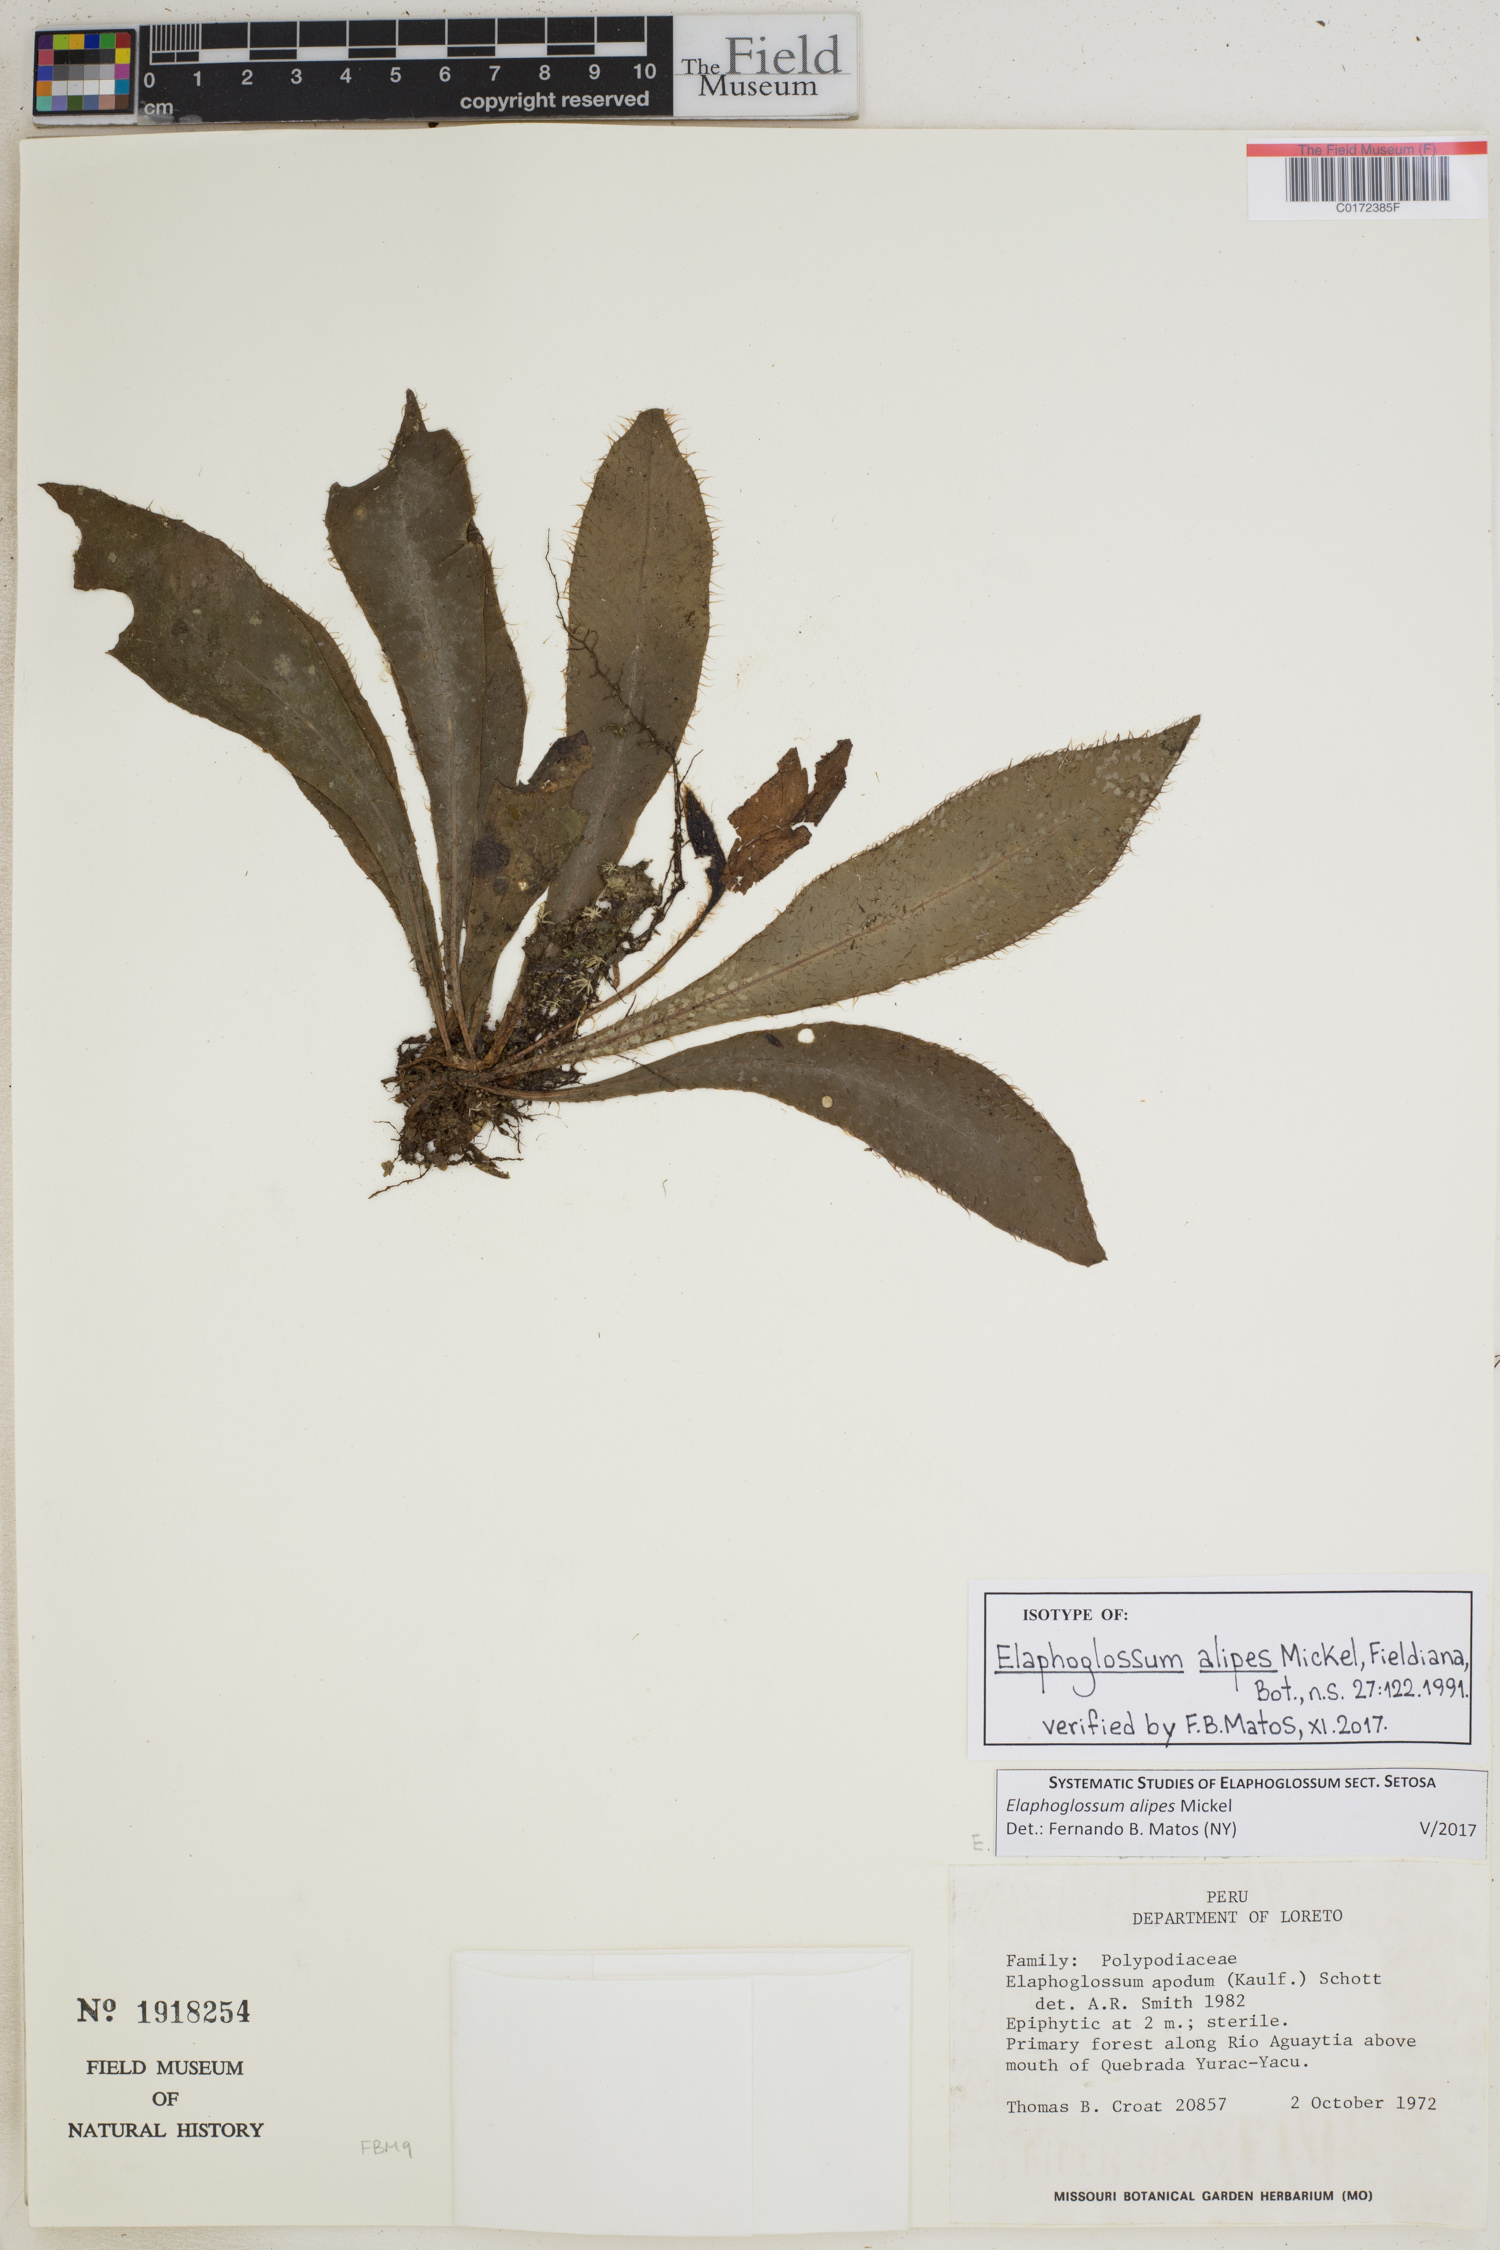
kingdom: Plantae
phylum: Tracheophyta
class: Polypodiopsida
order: Polypodiales
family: Dryopteridaceae
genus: Elaphoglossum
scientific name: Elaphoglossum alipes
